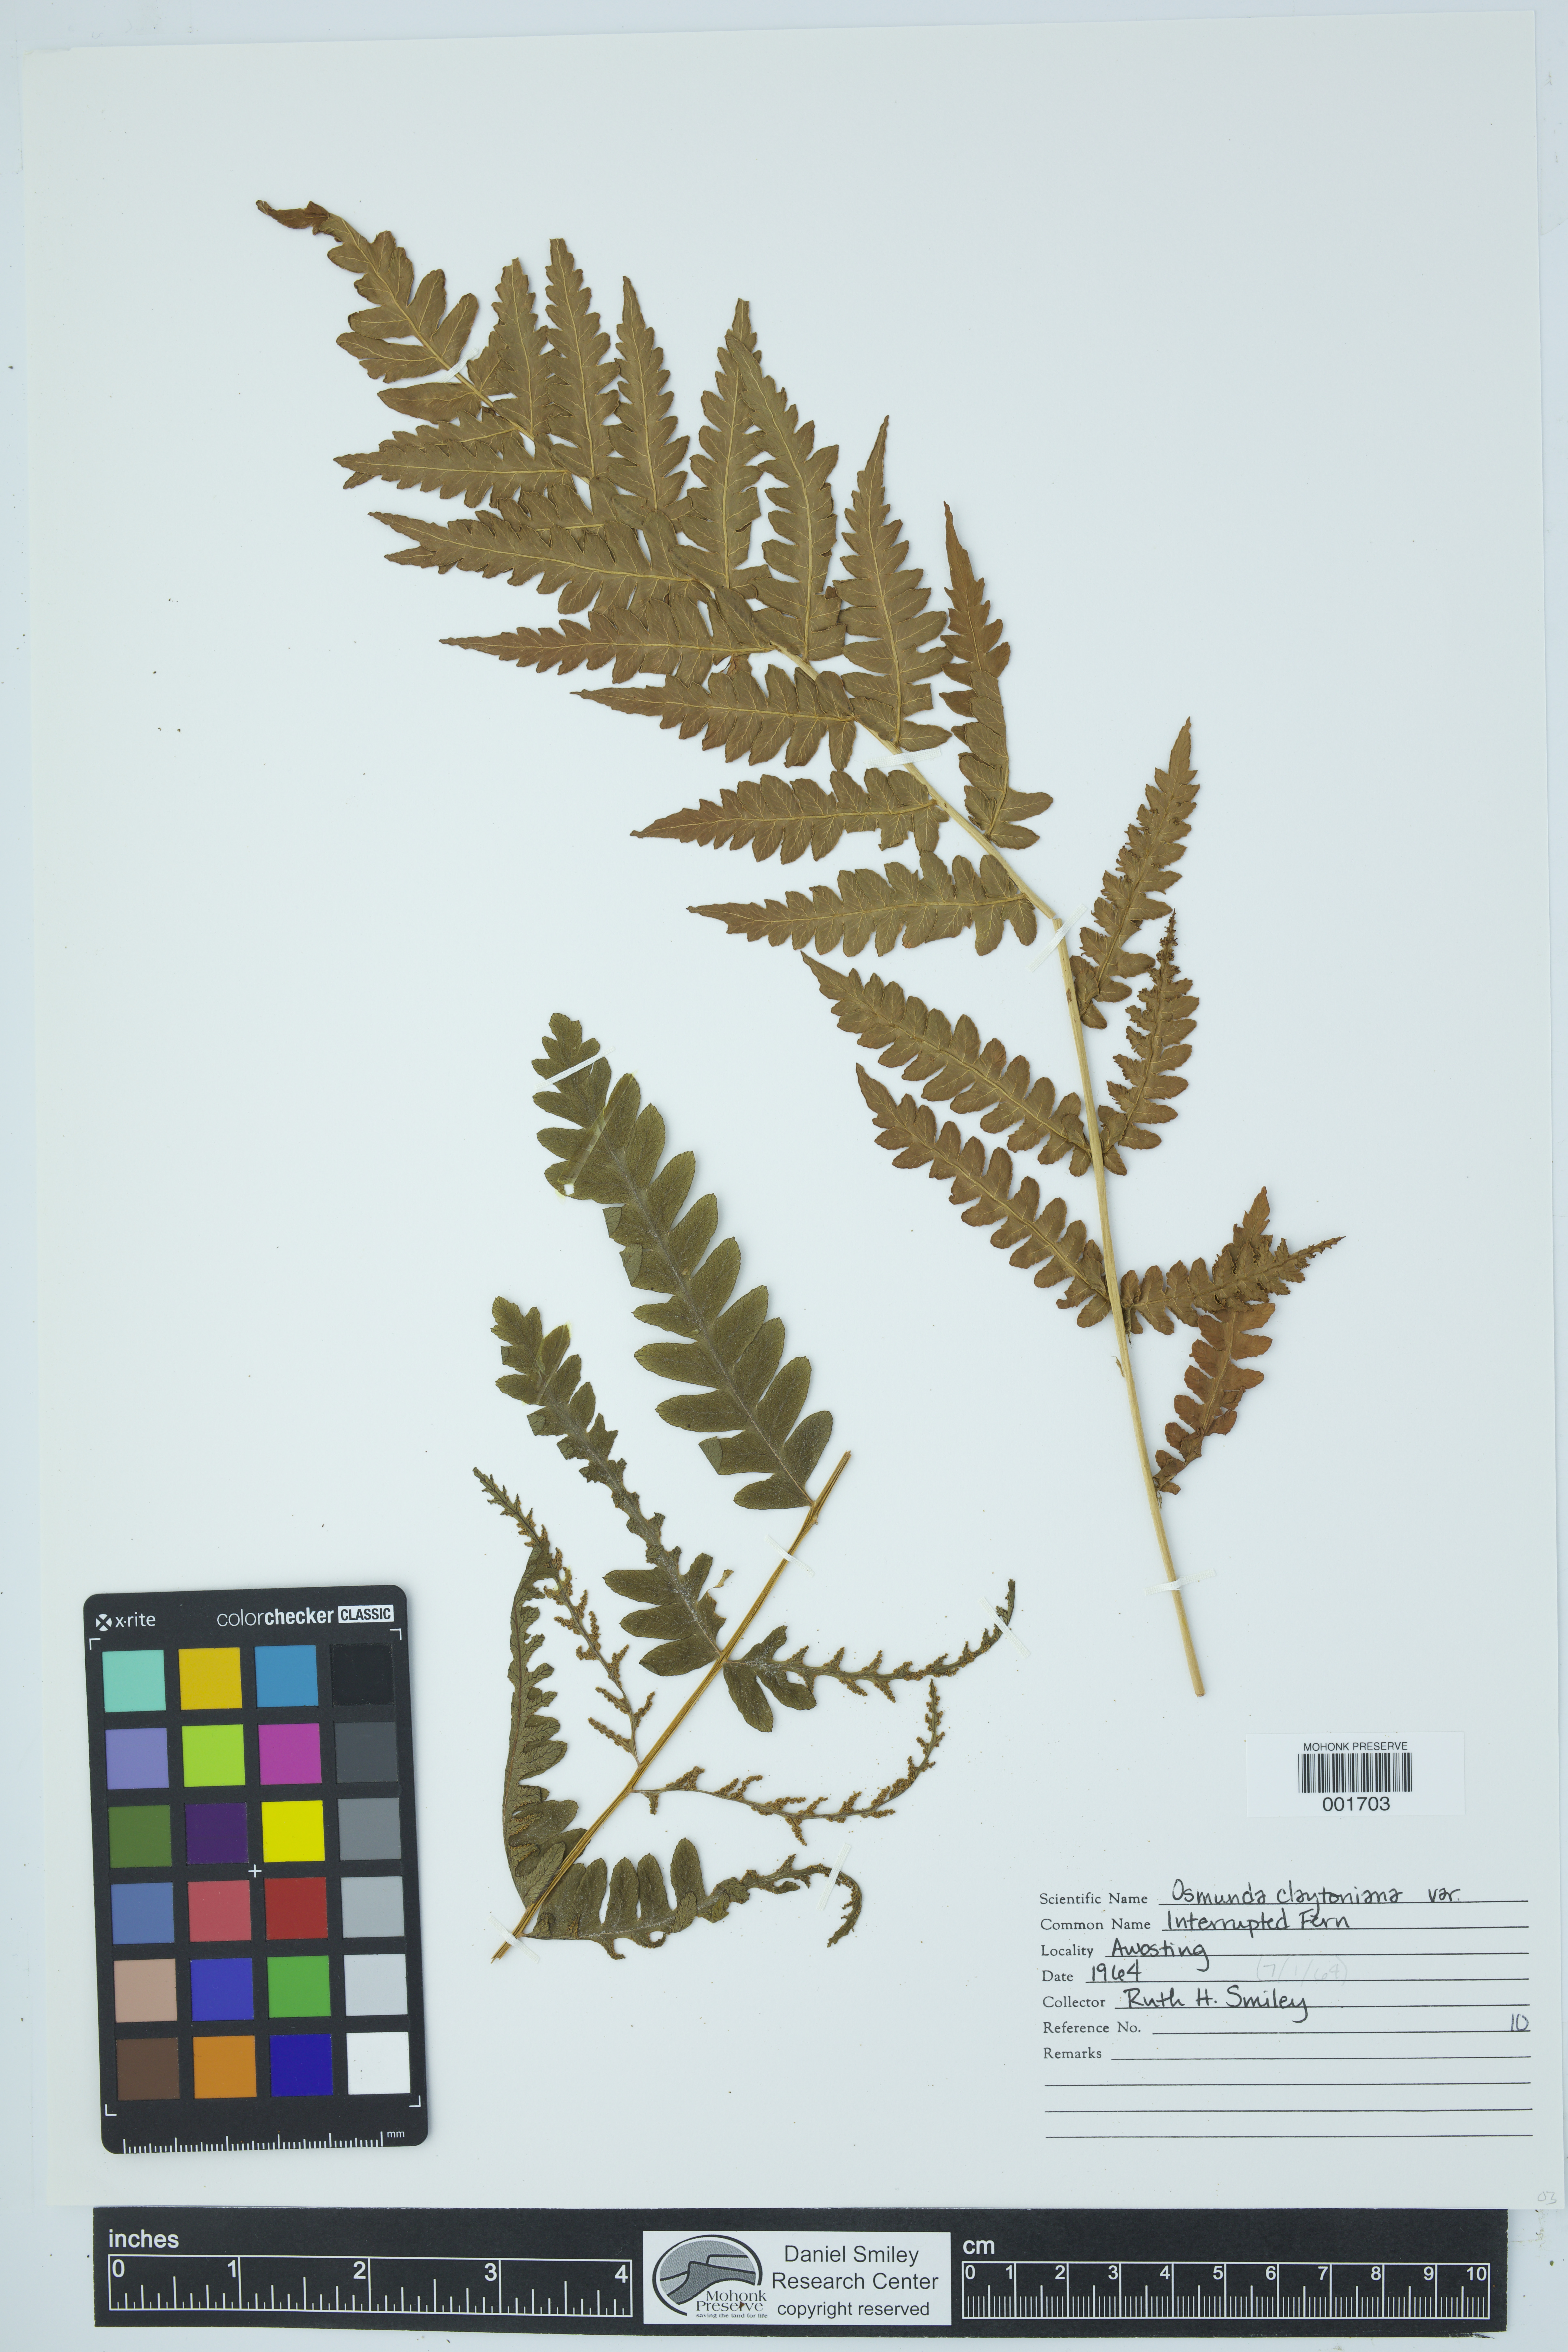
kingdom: Plantae
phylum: Tracheophyta
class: Polypodiopsida
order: Osmundales
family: Osmundaceae
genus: Claytosmunda
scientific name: Claytosmunda claytoniana
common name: Clayton's fern
